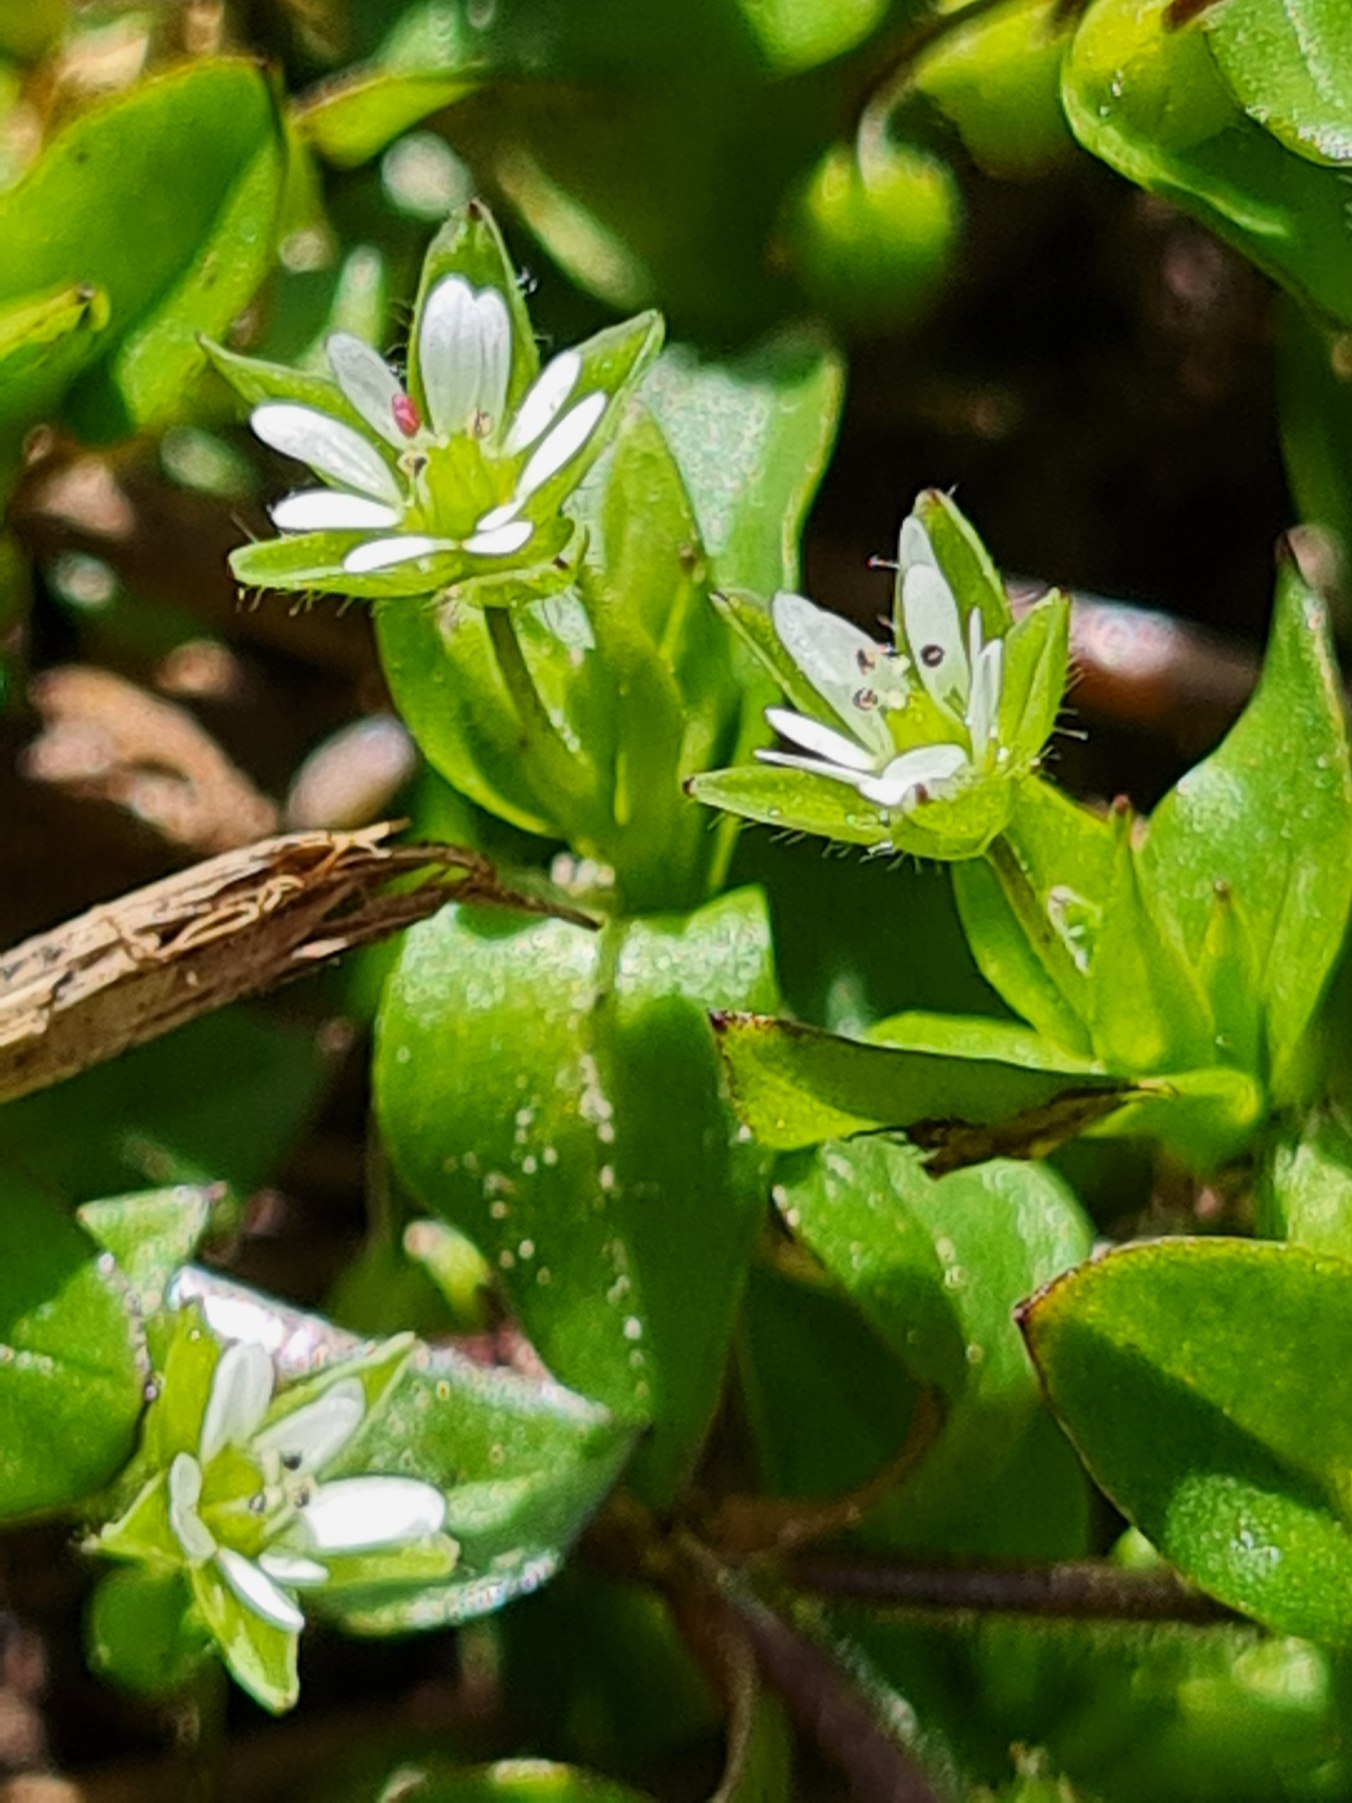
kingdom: Plantae
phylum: Tracheophyta
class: Magnoliopsida
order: Caryophyllales
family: Caryophyllaceae
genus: Stellaria
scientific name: Stellaria media
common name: Almindelig fuglegræs
